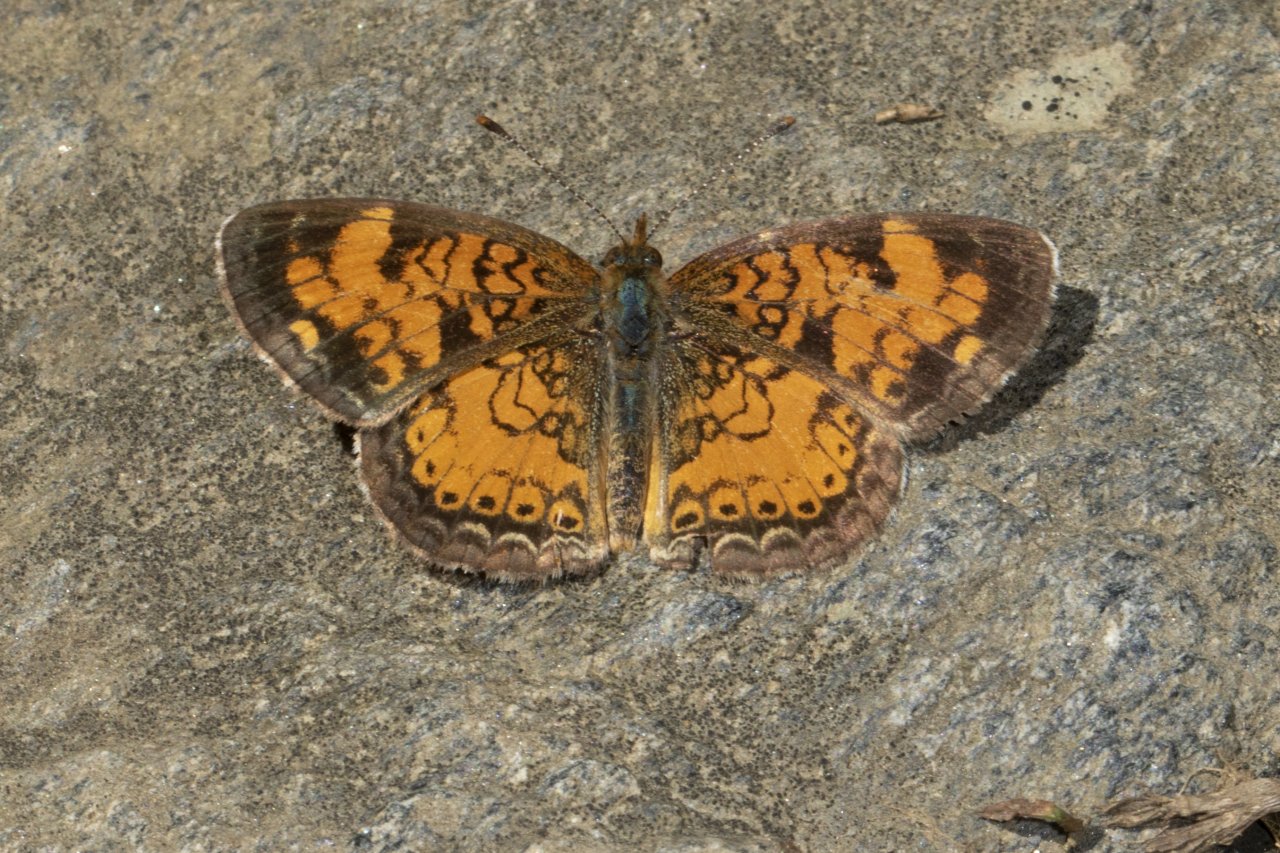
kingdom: Animalia
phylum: Arthropoda
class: Insecta
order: Lepidoptera
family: Nymphalidae
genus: Phyciodes
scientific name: Phyciodes tharos
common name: Northern Crescent
